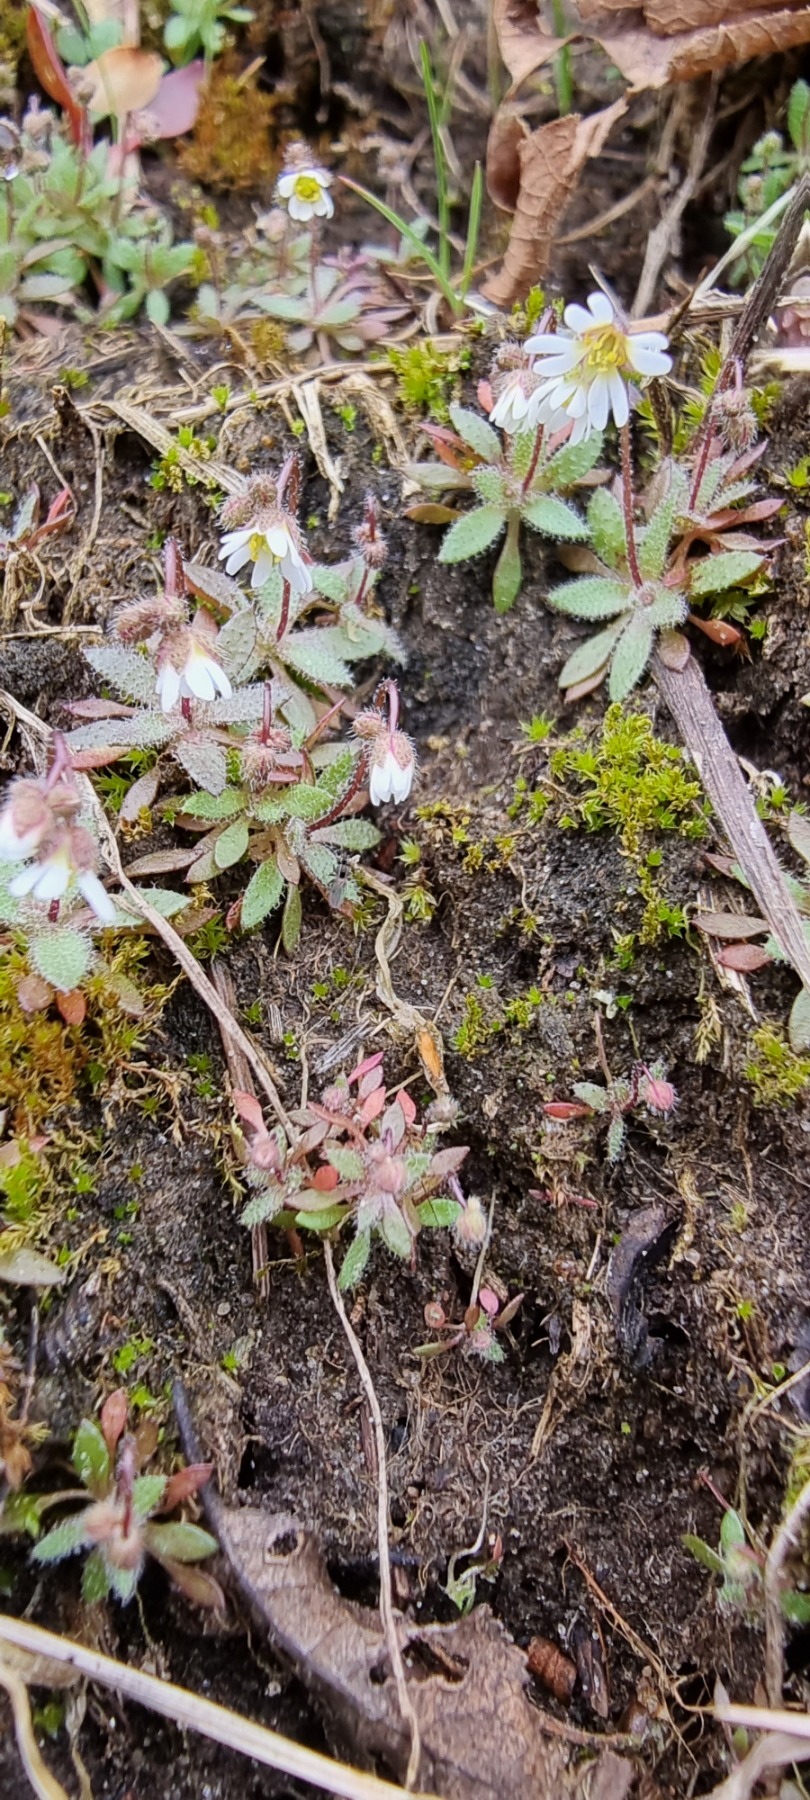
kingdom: Plantae
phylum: Tracheophyta
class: Magnoliopsida
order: Brassicales
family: Brassicaceae
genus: Draba
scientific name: Draba verna
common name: Vår-gæslingeblomst
